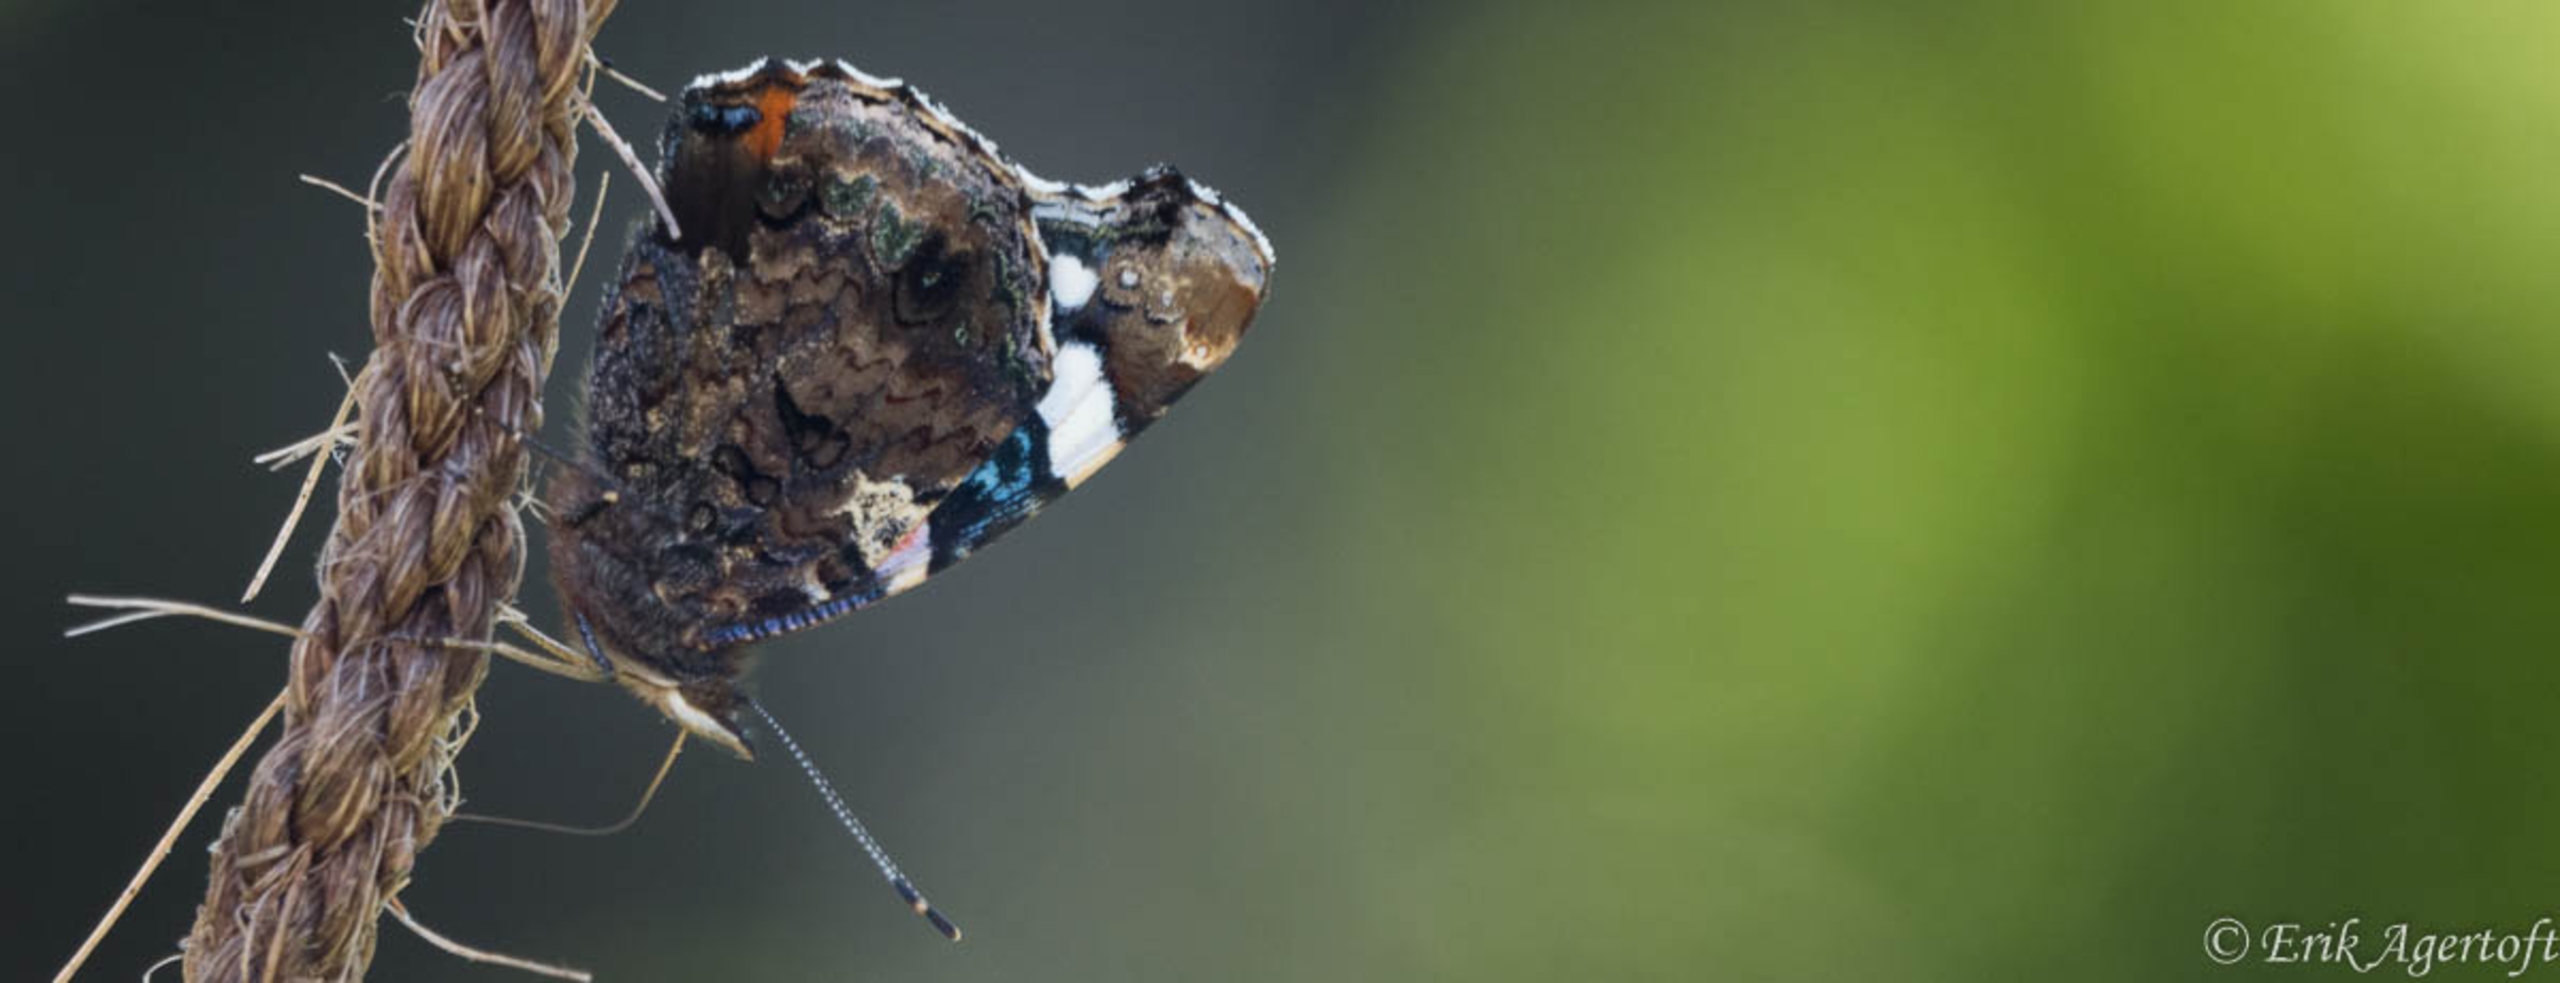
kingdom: Animalia
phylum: Arthropoda
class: Insecta
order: Lepidoptera
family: Nymphalidae
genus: Vanessa
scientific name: Vanessa atalanta
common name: Admiral
